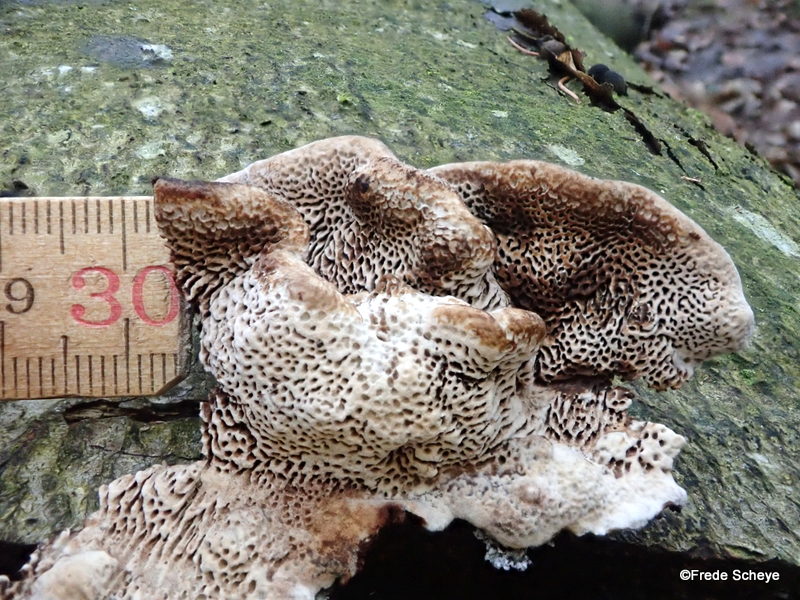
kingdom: Fungi
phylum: Basidiomycota
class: Agaricomycetes
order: Polyporales
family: Polyporaceae
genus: Podofomes
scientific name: Podofomes mollis
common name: blød begporesvamp
